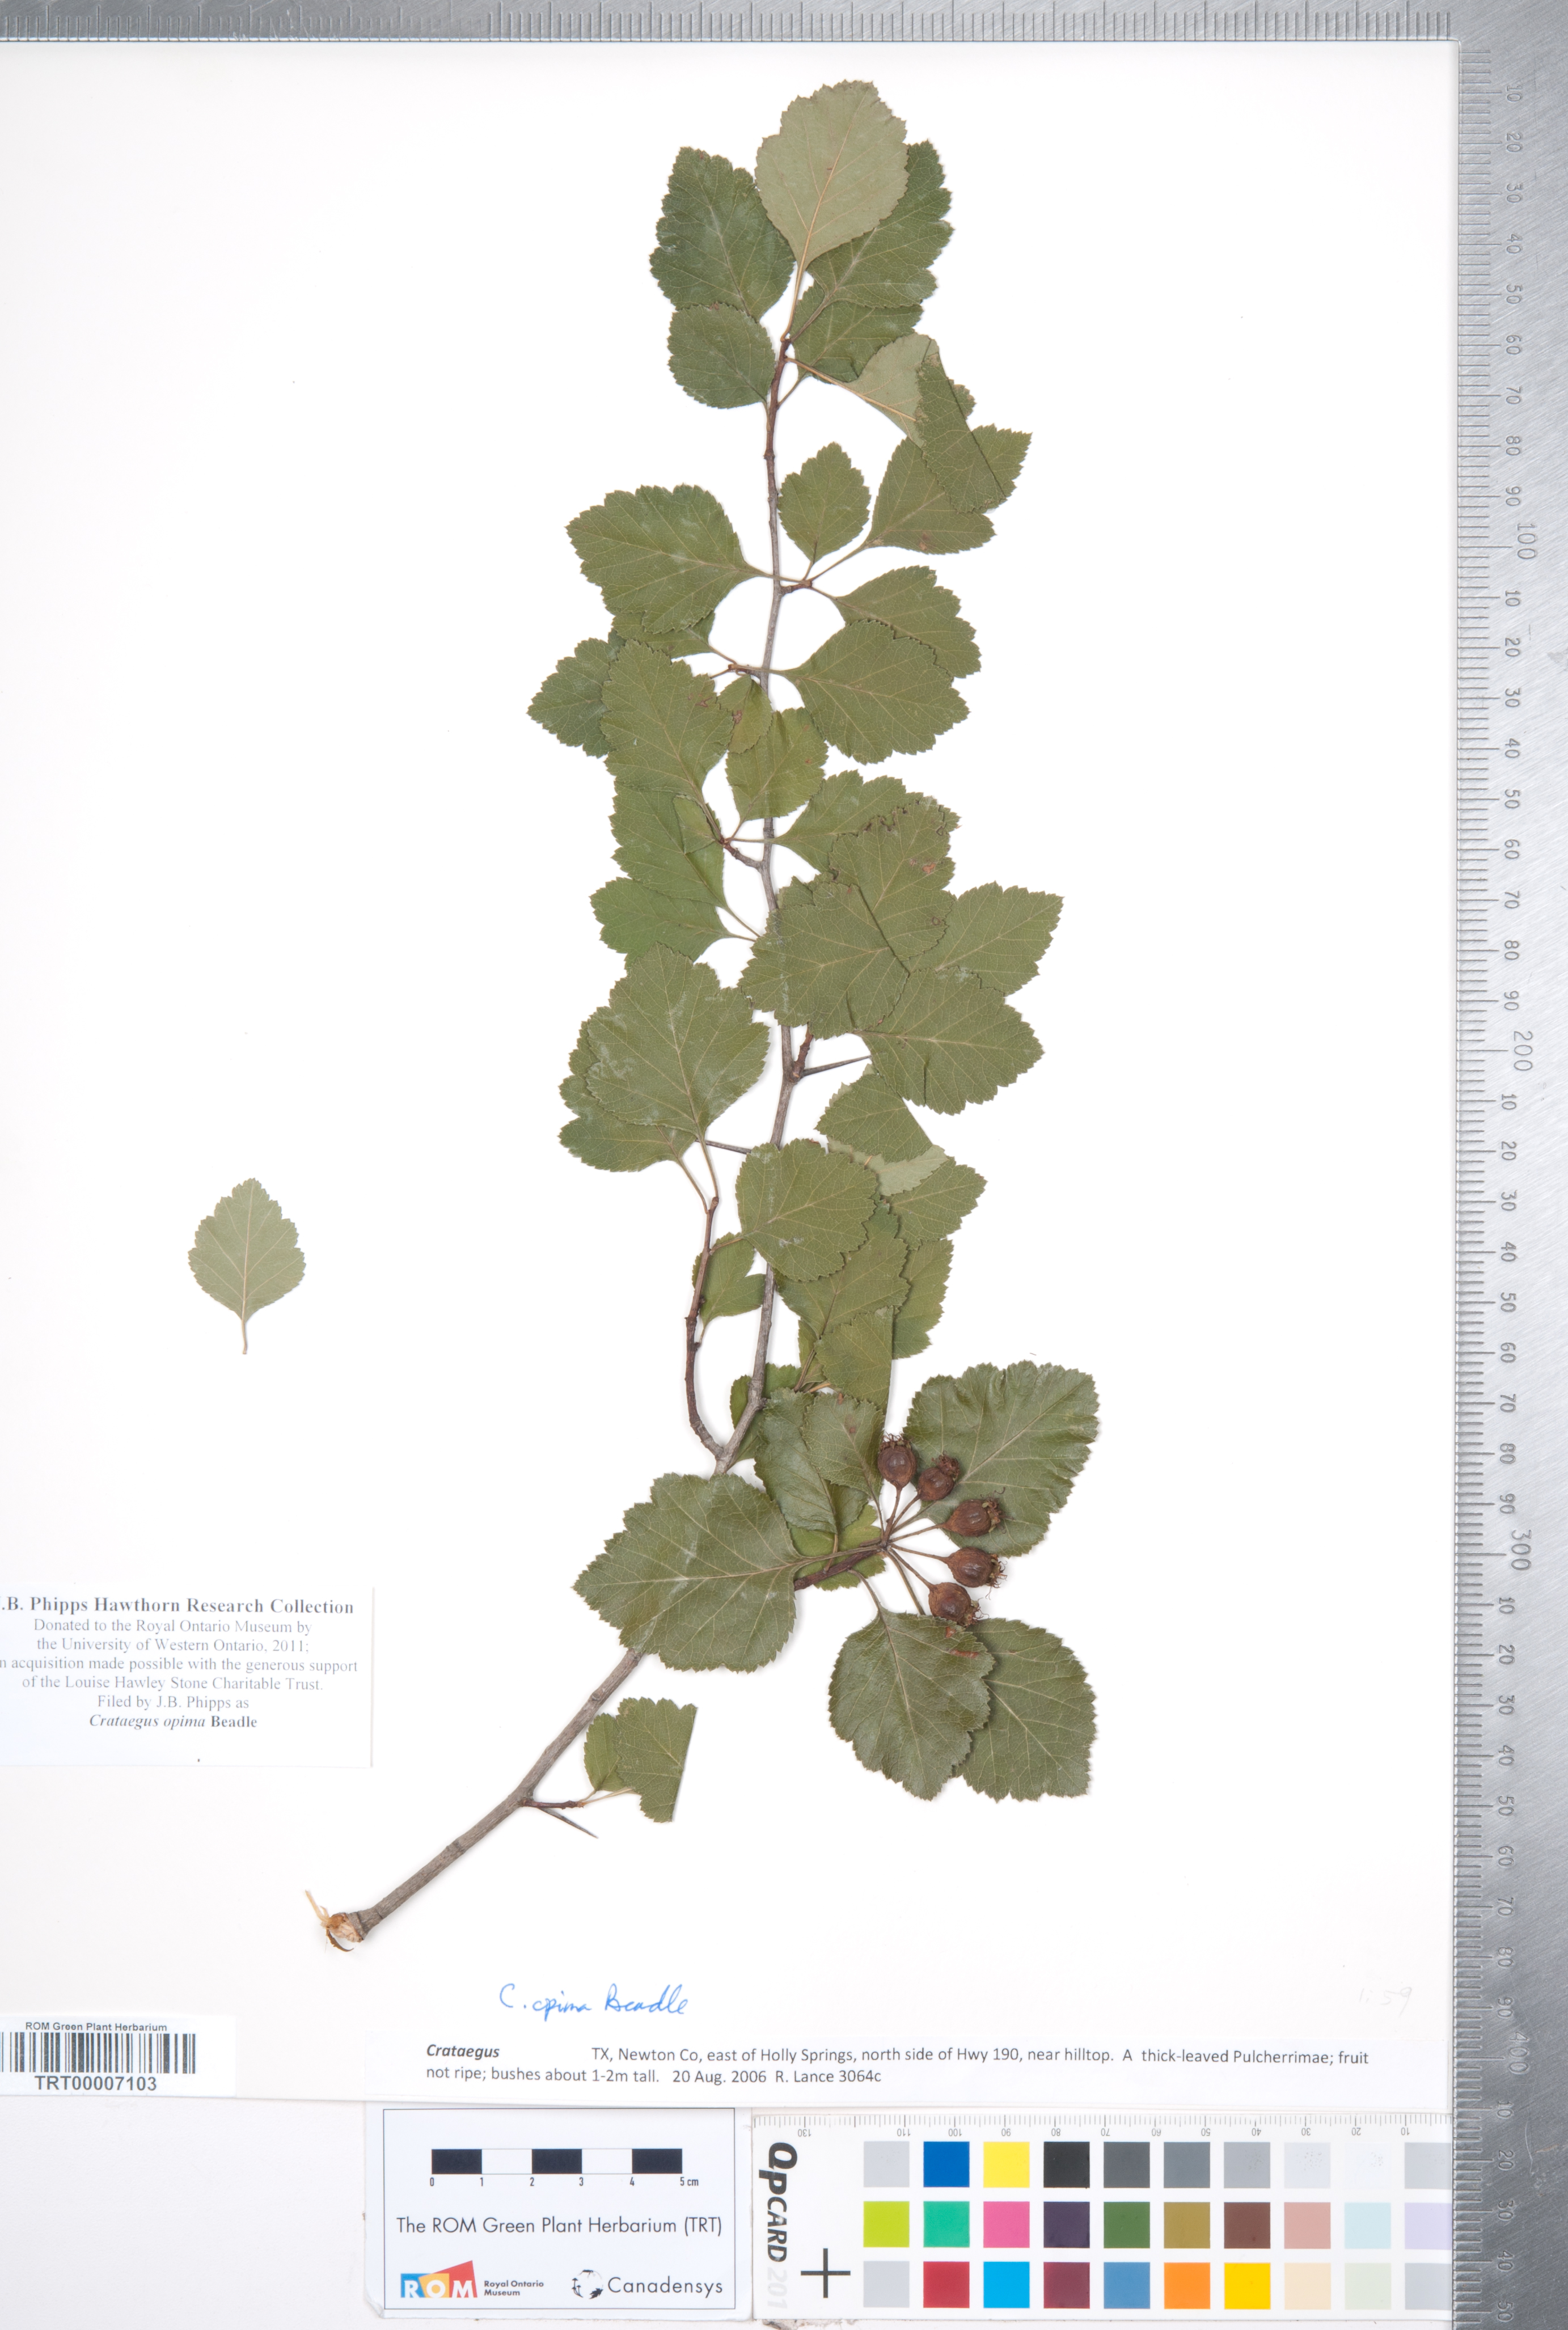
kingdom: Plantae
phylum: Tracheophyta
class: Magnoliopsida
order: Rosales
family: Rosaceae
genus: Crataegus
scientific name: Crataegus pulcherrima
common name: Beautiful hawthorn
